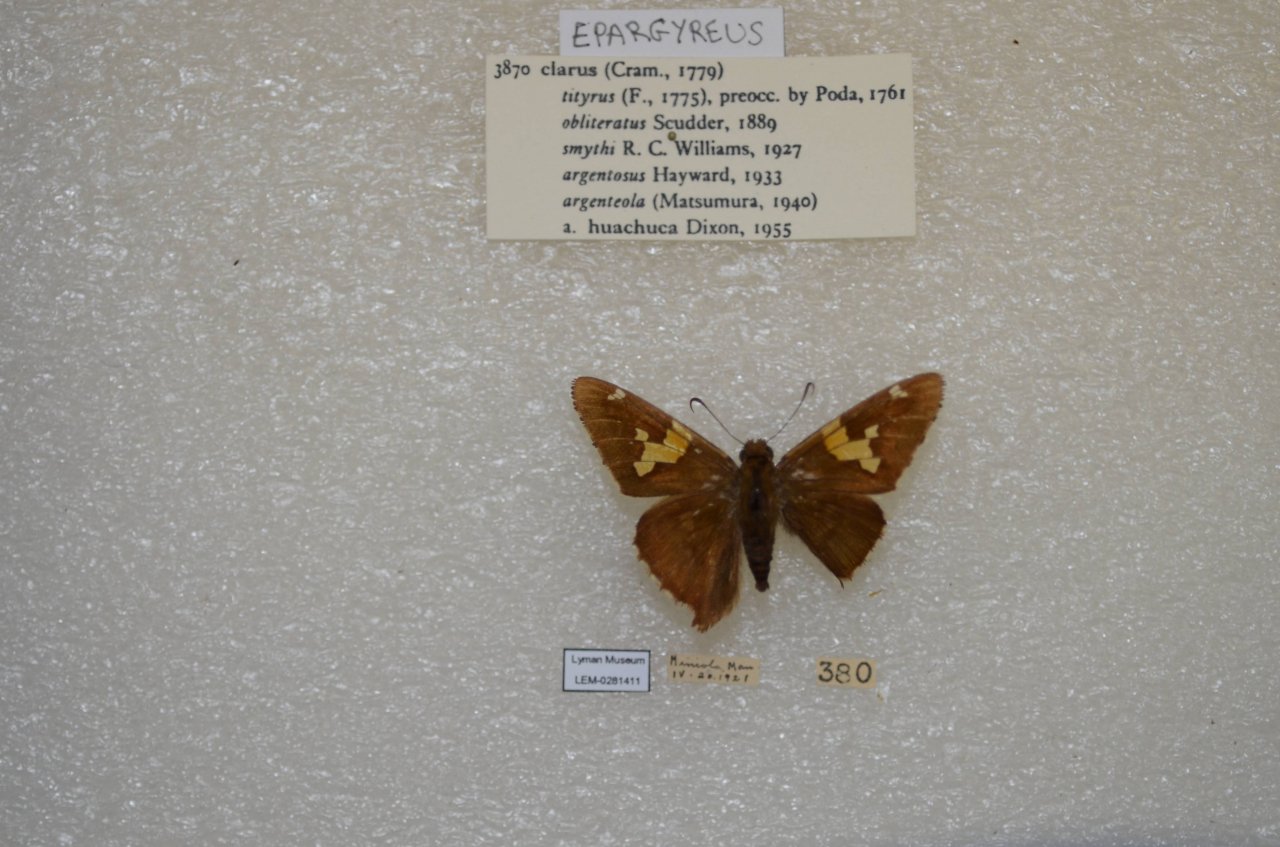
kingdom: Animalia
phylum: Arthropoda
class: Insecta
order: Lepidoptera
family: Hesperiidae
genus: Epargyreus
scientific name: Epargyreus clarus
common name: Silver-spotted Skipper
